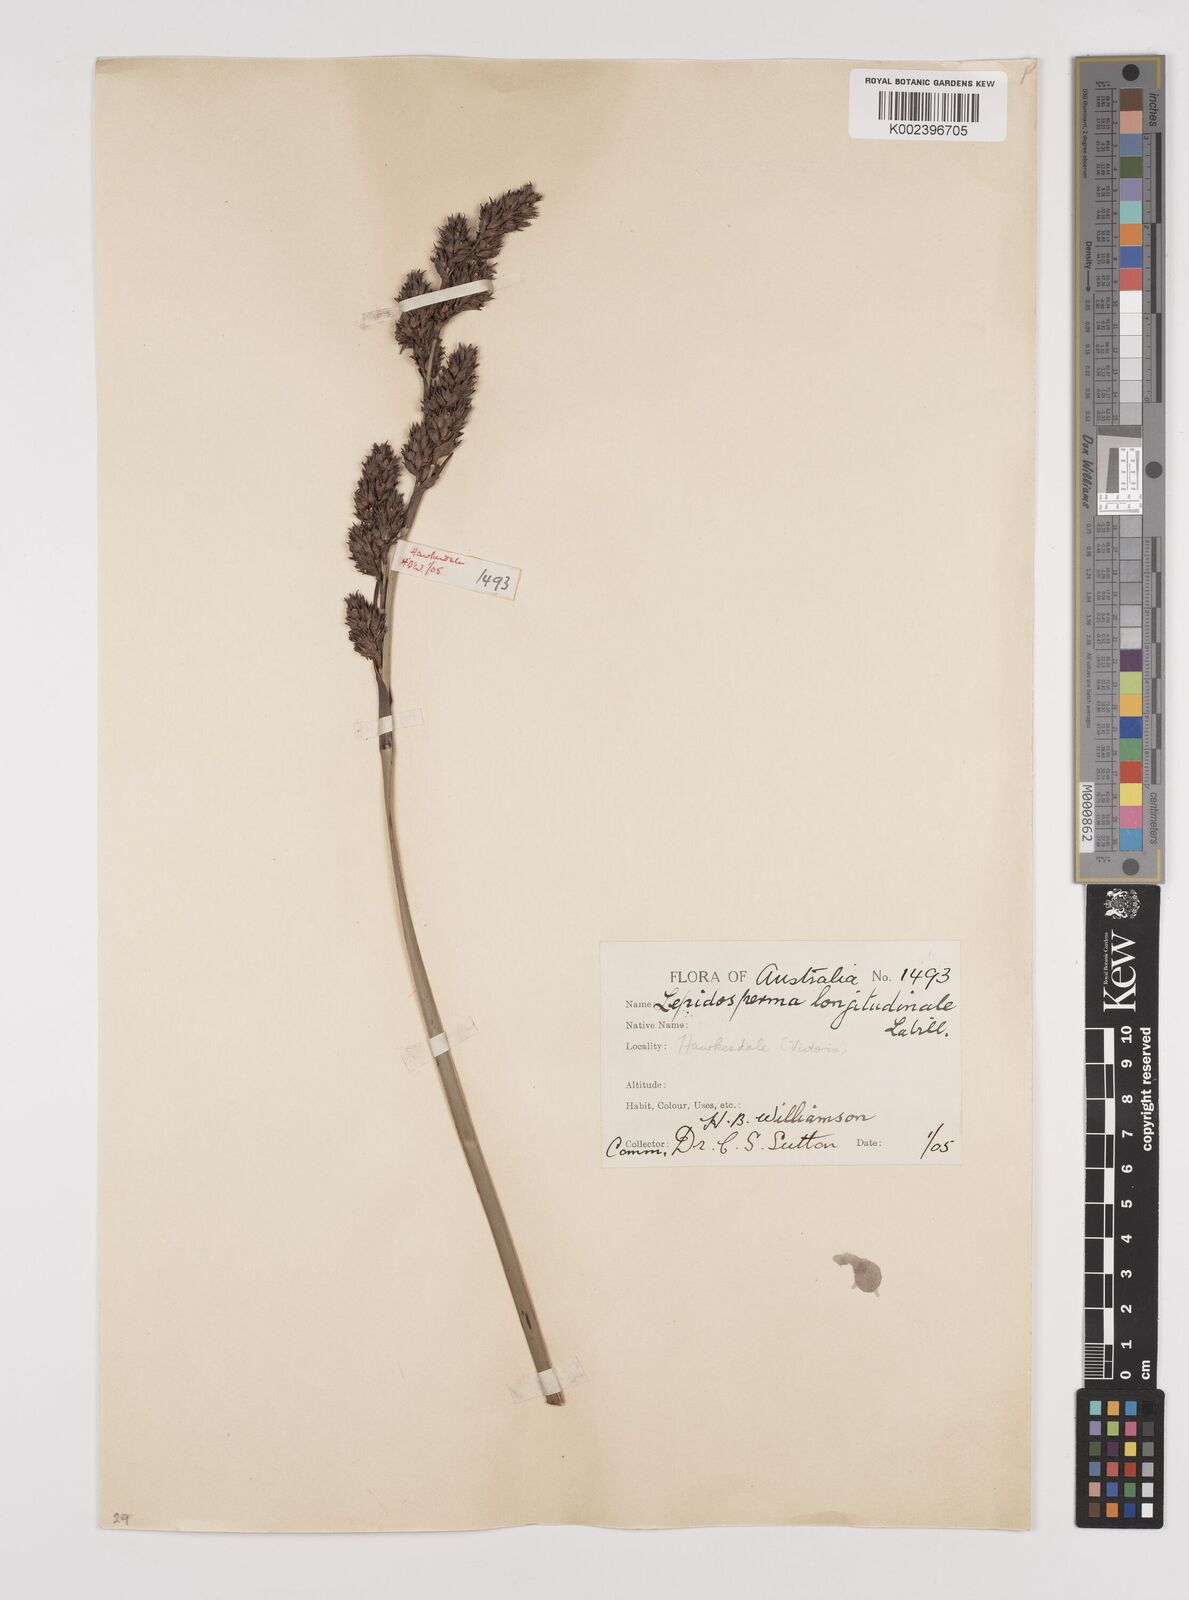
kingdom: Plantae
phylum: Tracheophyta
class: Liliopsida
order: Poales
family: Cyperaceae
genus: Lepidosperma
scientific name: Lepidosperma longitudinale
